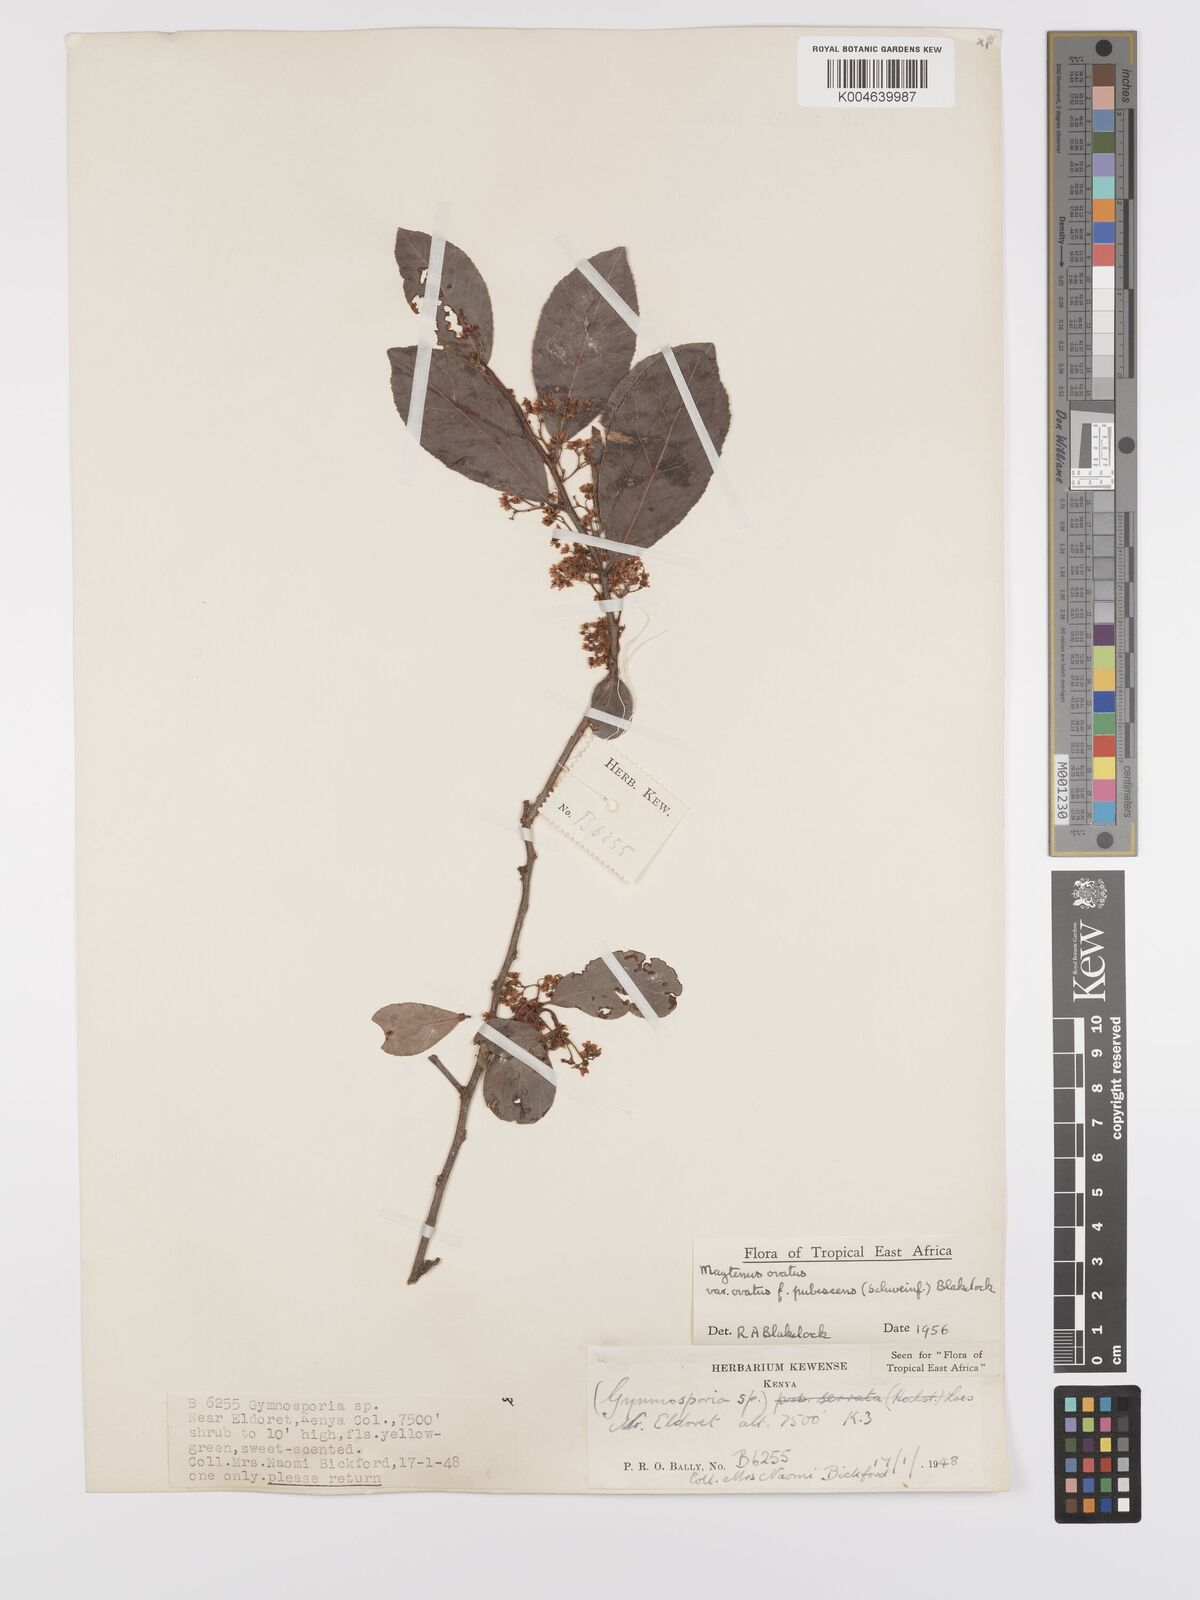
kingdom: Plantae
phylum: Tracheophyta
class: Magnoliopsida
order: Celastrales
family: Celastraceae
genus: Gymnosporia
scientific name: Gymnosporia arbutifolia
